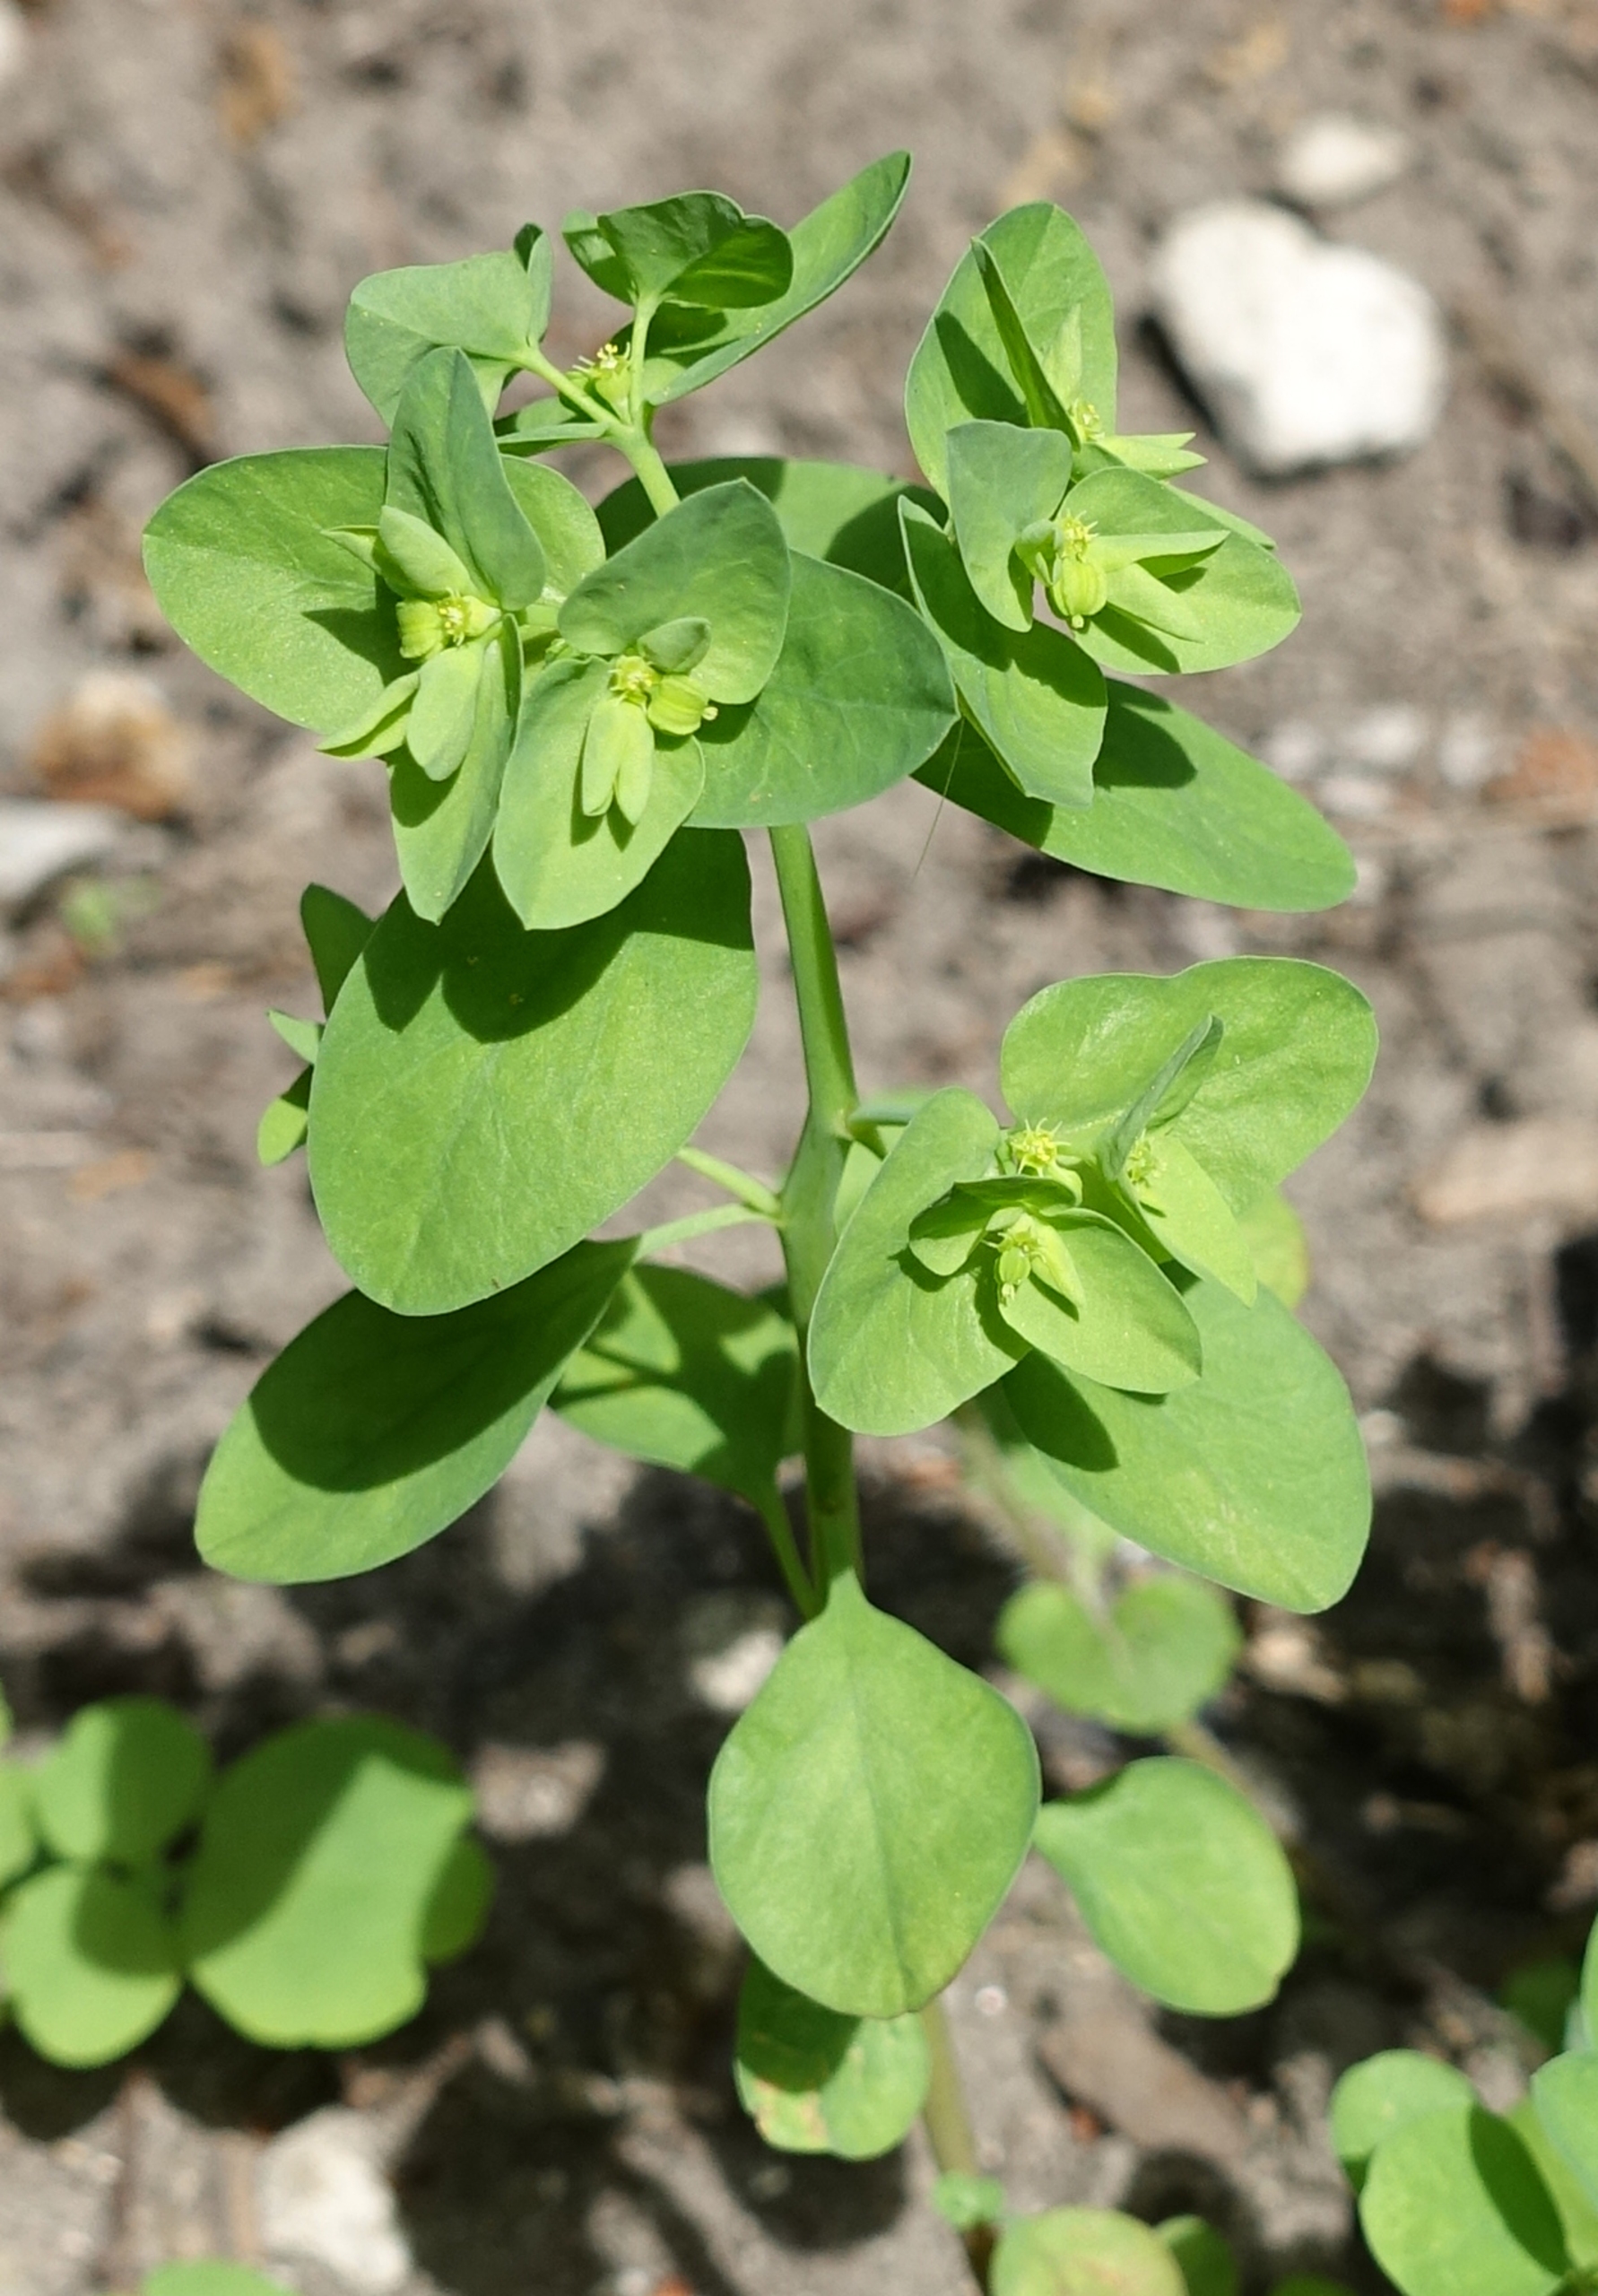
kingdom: Plantae
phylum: Tracheophyta
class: Magnoliopsida
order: Malpighiales
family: Euphorbiaceae
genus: Euphorbia
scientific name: Euphorbia peplus
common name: Gaffel-vortemælk
